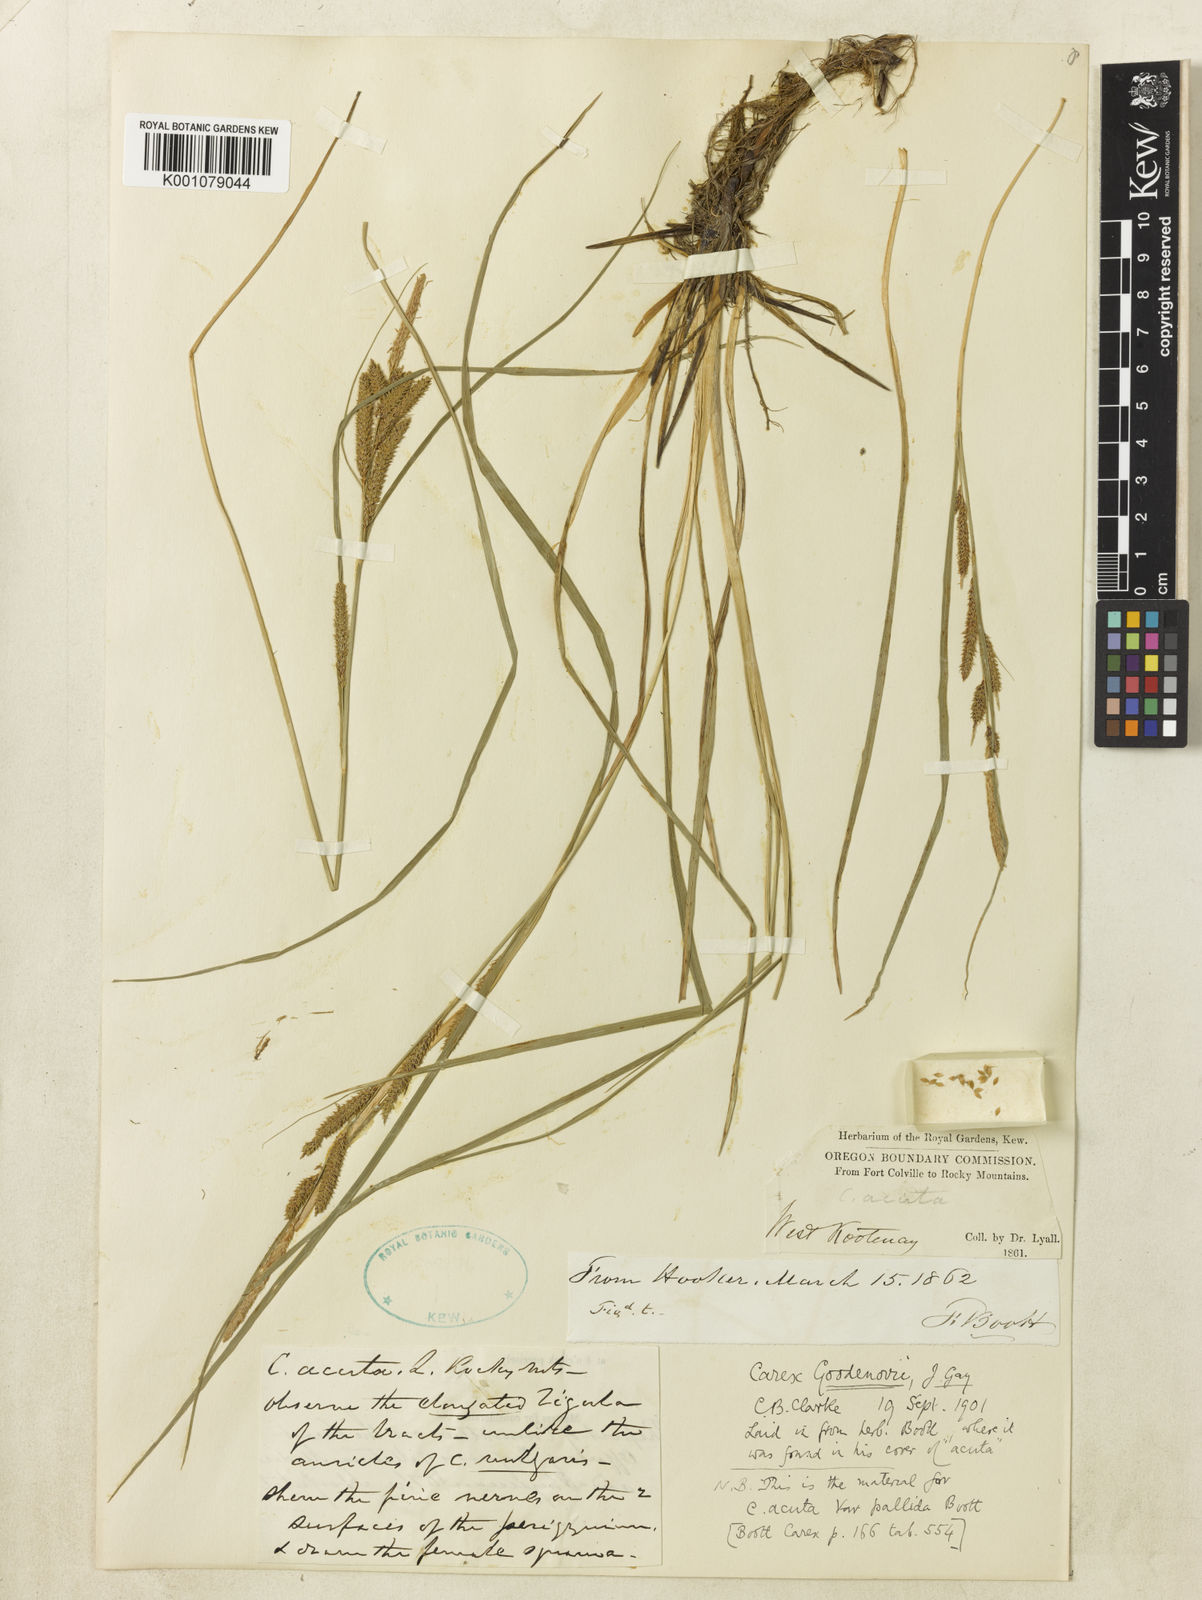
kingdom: Plantae
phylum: Tracheophyta
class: Liliopsida
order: Poales
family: Cyperaceae
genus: Carex
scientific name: Carex kelloggii
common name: Kellogg's sedge
